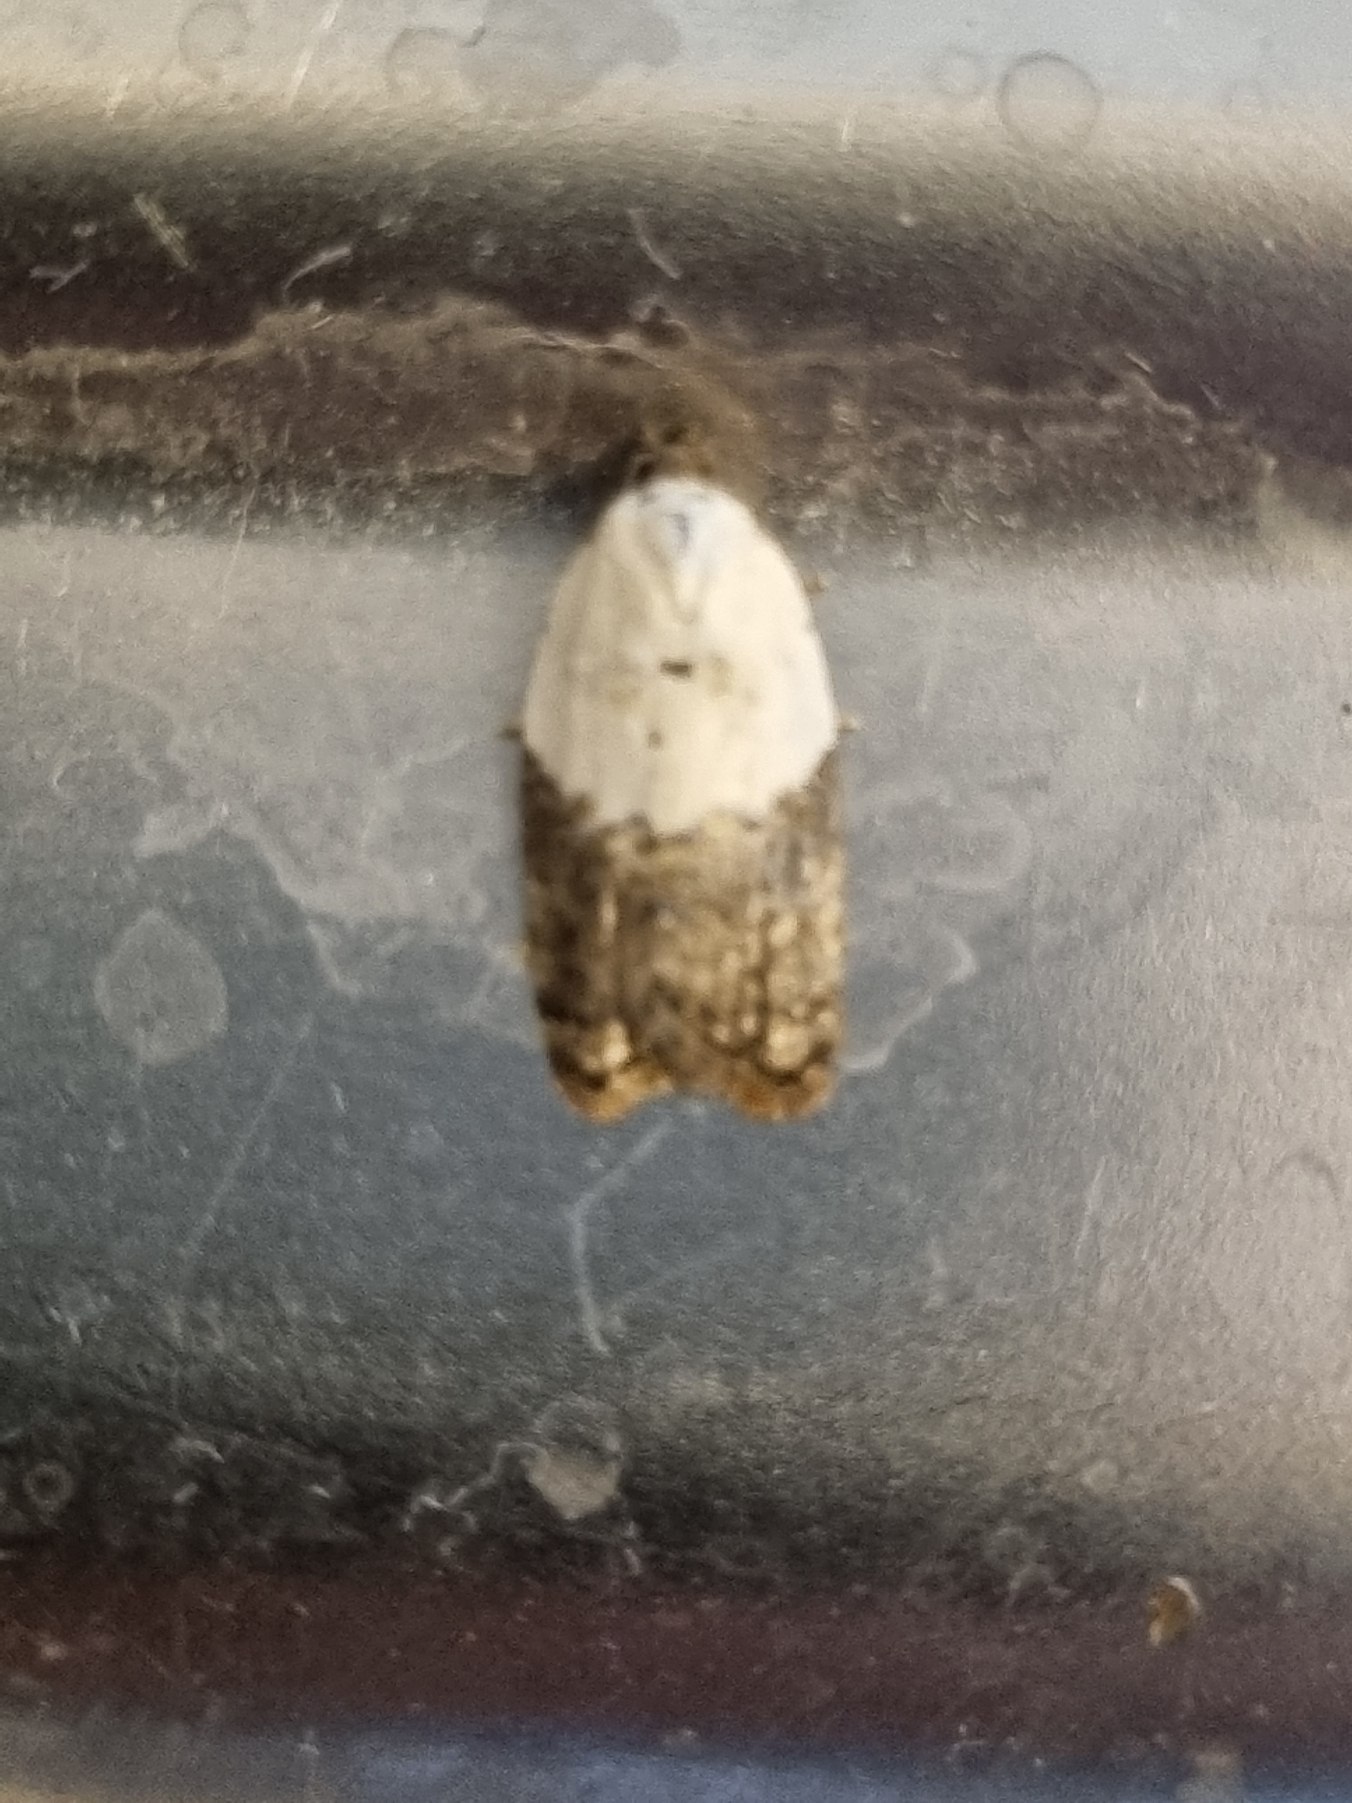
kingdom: Animalia
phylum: Arthropoda
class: Insecta
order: Lepidoptera
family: Tortricidae
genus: Acleris
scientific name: Acleris variegana
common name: Hvidbroget rosenvikler
